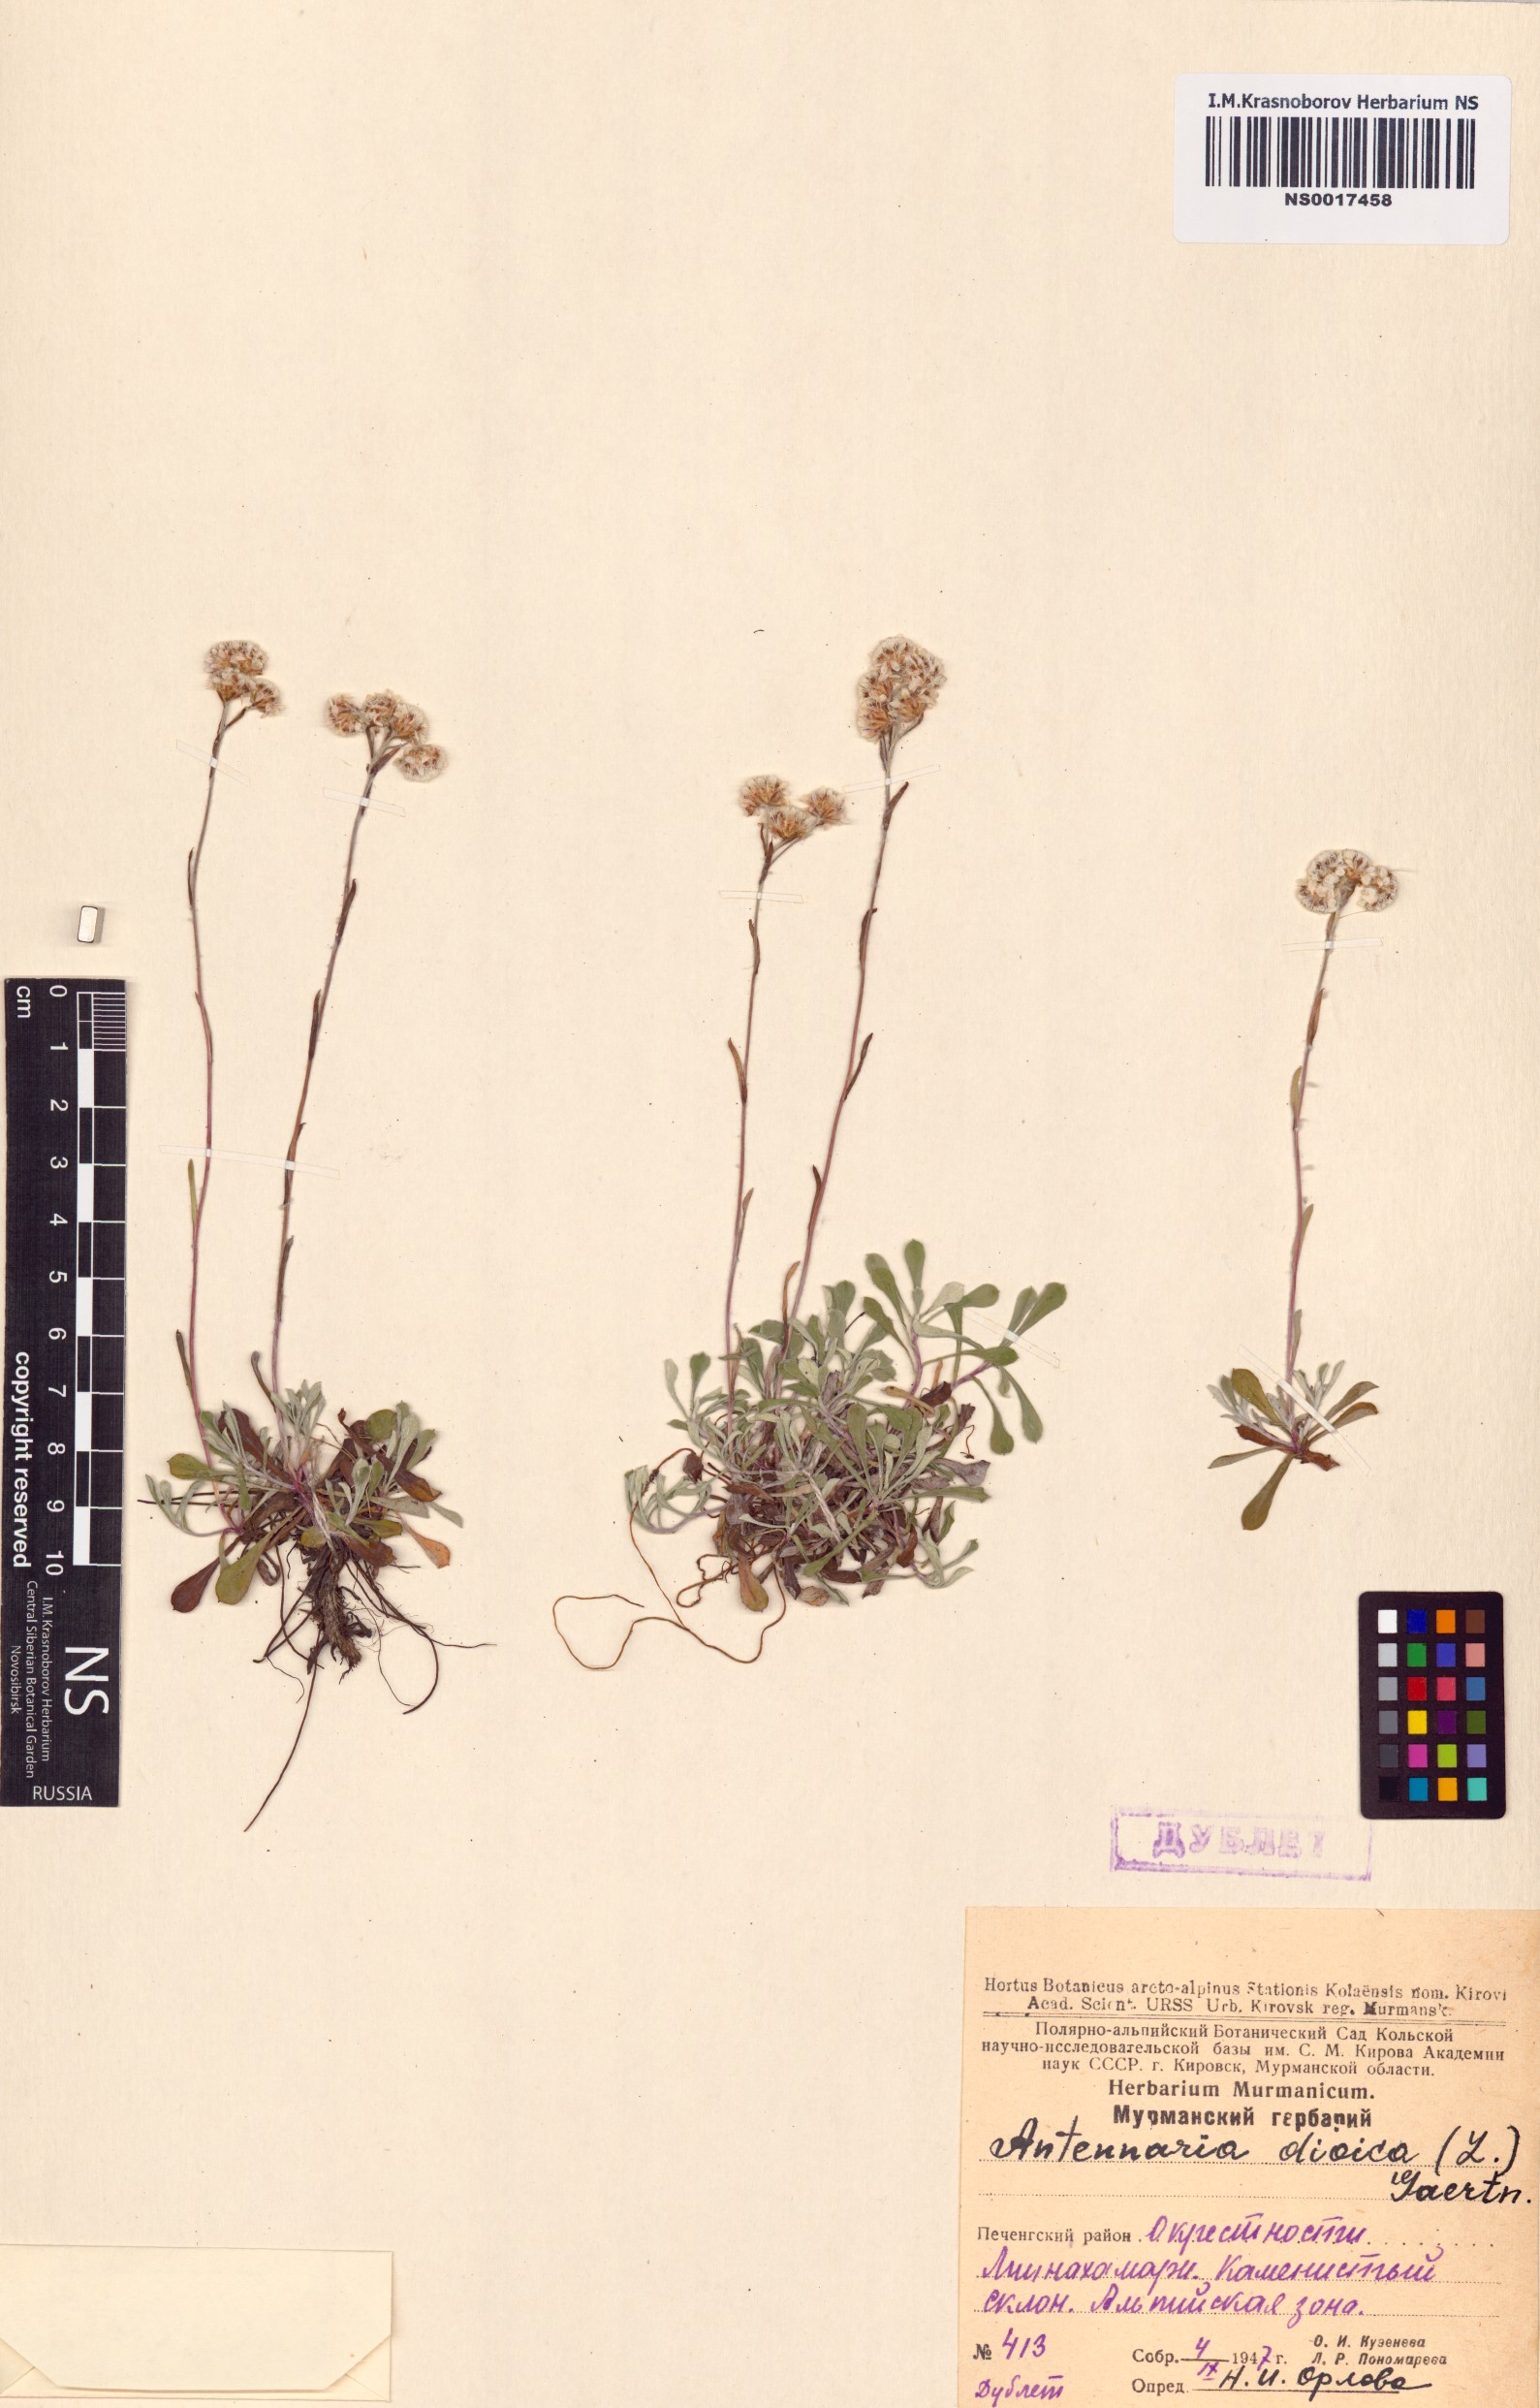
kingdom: Plantae
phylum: Tracheophyta
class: Magnoliopsida
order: Asterales
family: Asteraceae
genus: Antennaria
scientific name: Antennaria dioica
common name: Mountain everlasting
